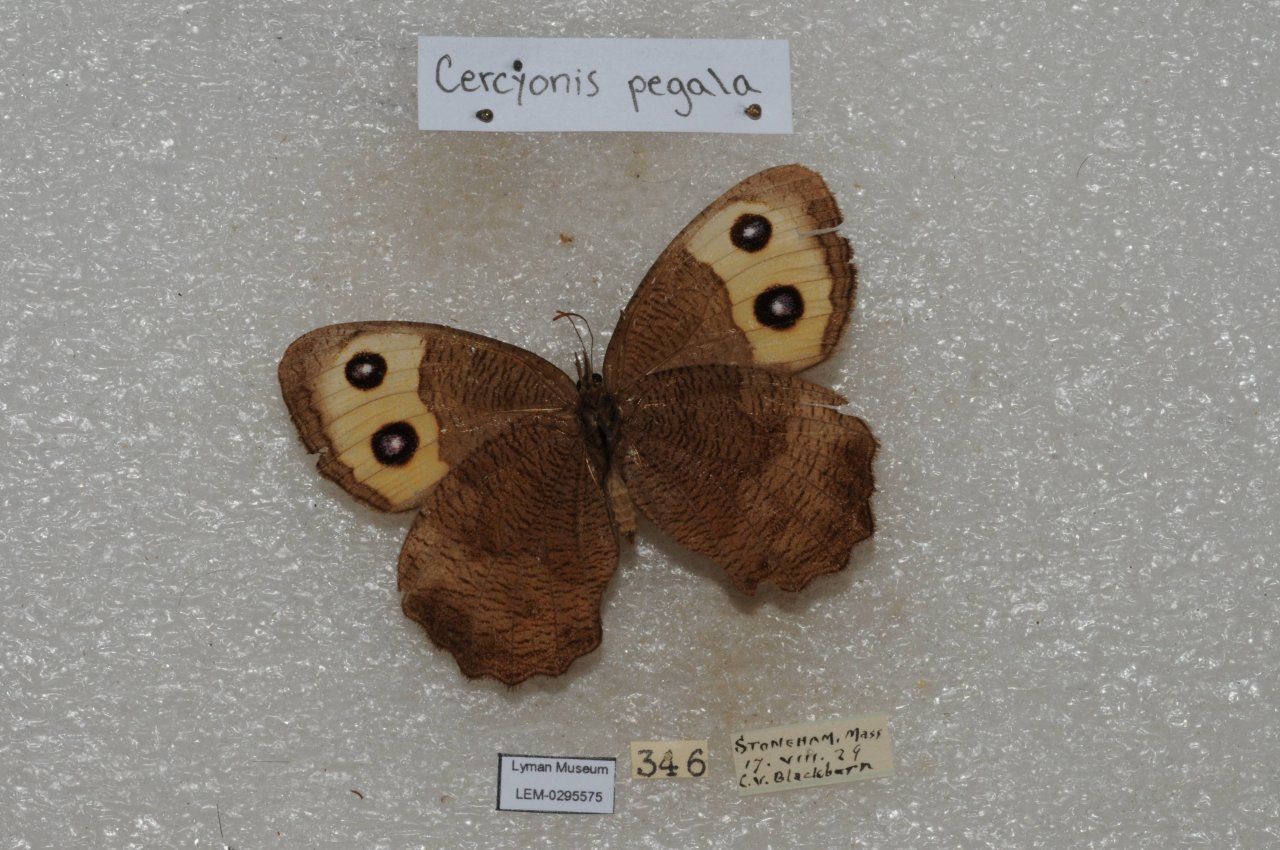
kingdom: Animalia
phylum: Arthropoda
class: Insecta
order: Lepidoptera
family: Nymphalidae
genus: Cercyonis
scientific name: Cercyonis pegala
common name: Common Wood-Nymph
